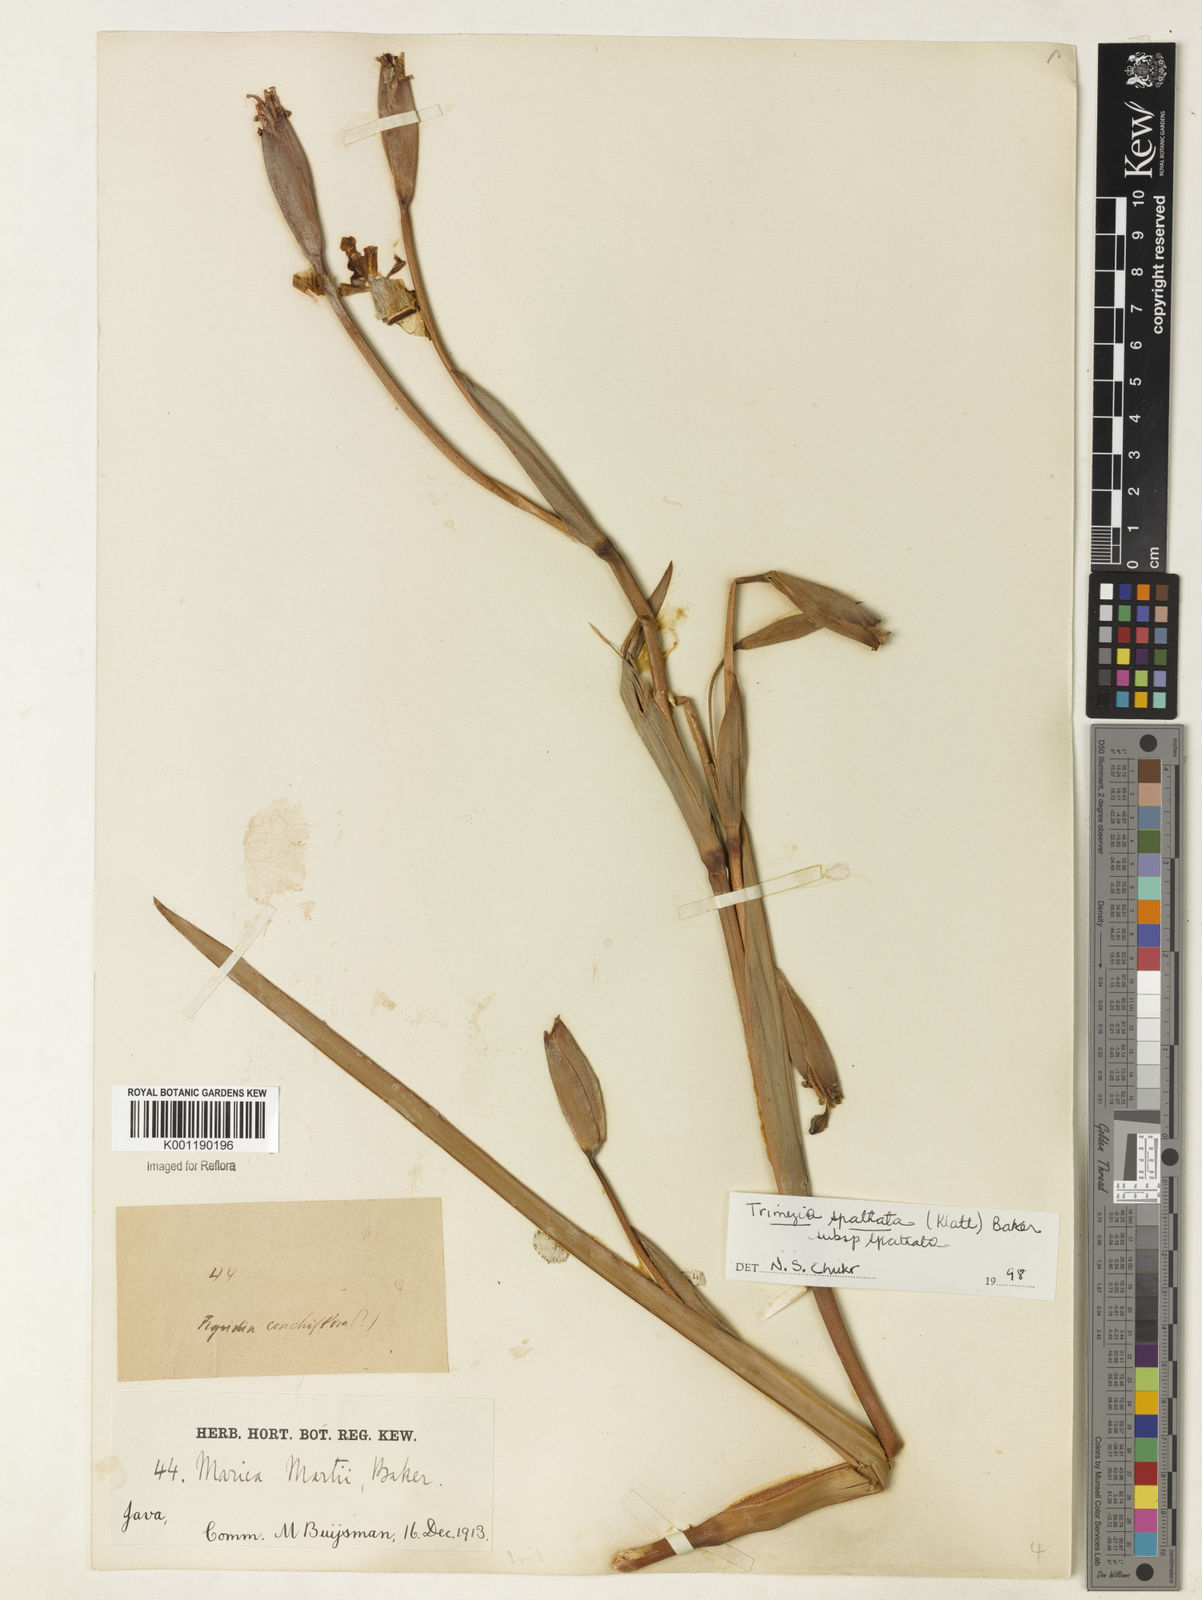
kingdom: Plantae
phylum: Tracheophyta
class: Liliopsida
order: Asparagales
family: Iridaceae
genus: Trimezia
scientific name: Trimezia spathata
